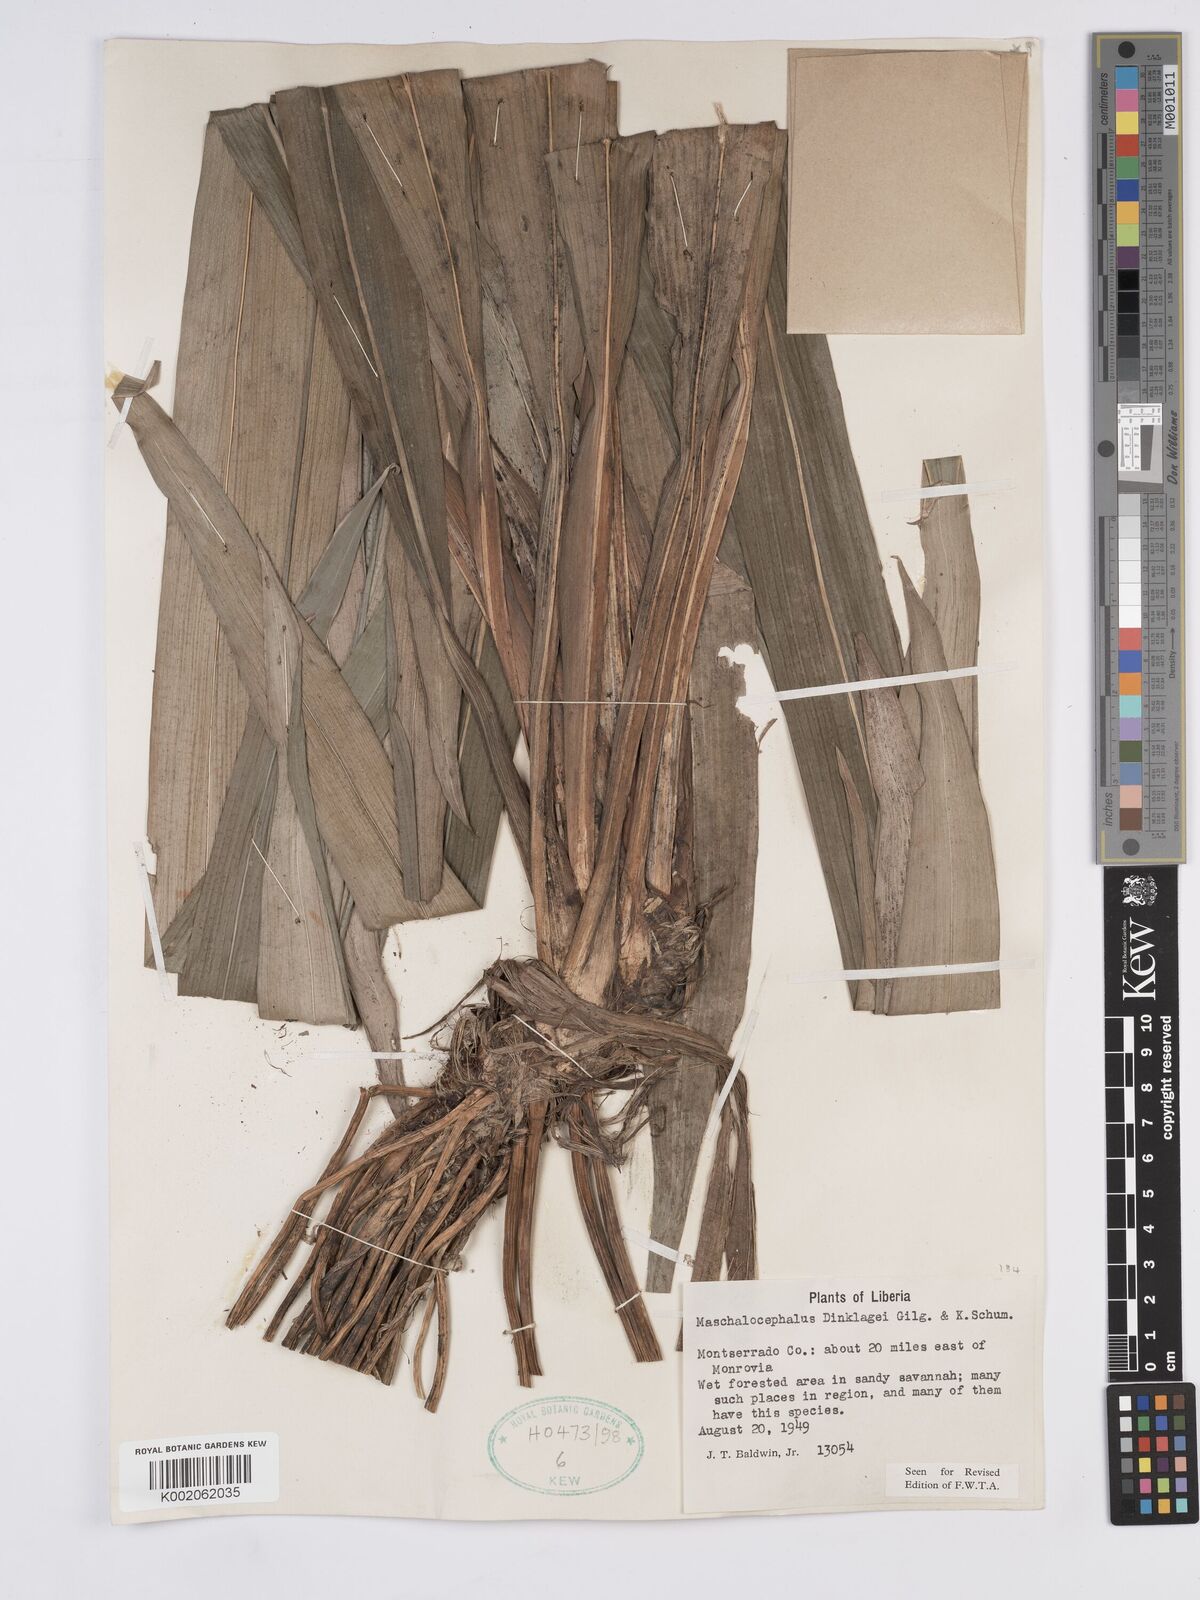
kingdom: Plantae
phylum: Tracheophyta
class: Liliopsida
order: Poales
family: Rapateaceae
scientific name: Rapateaceae
